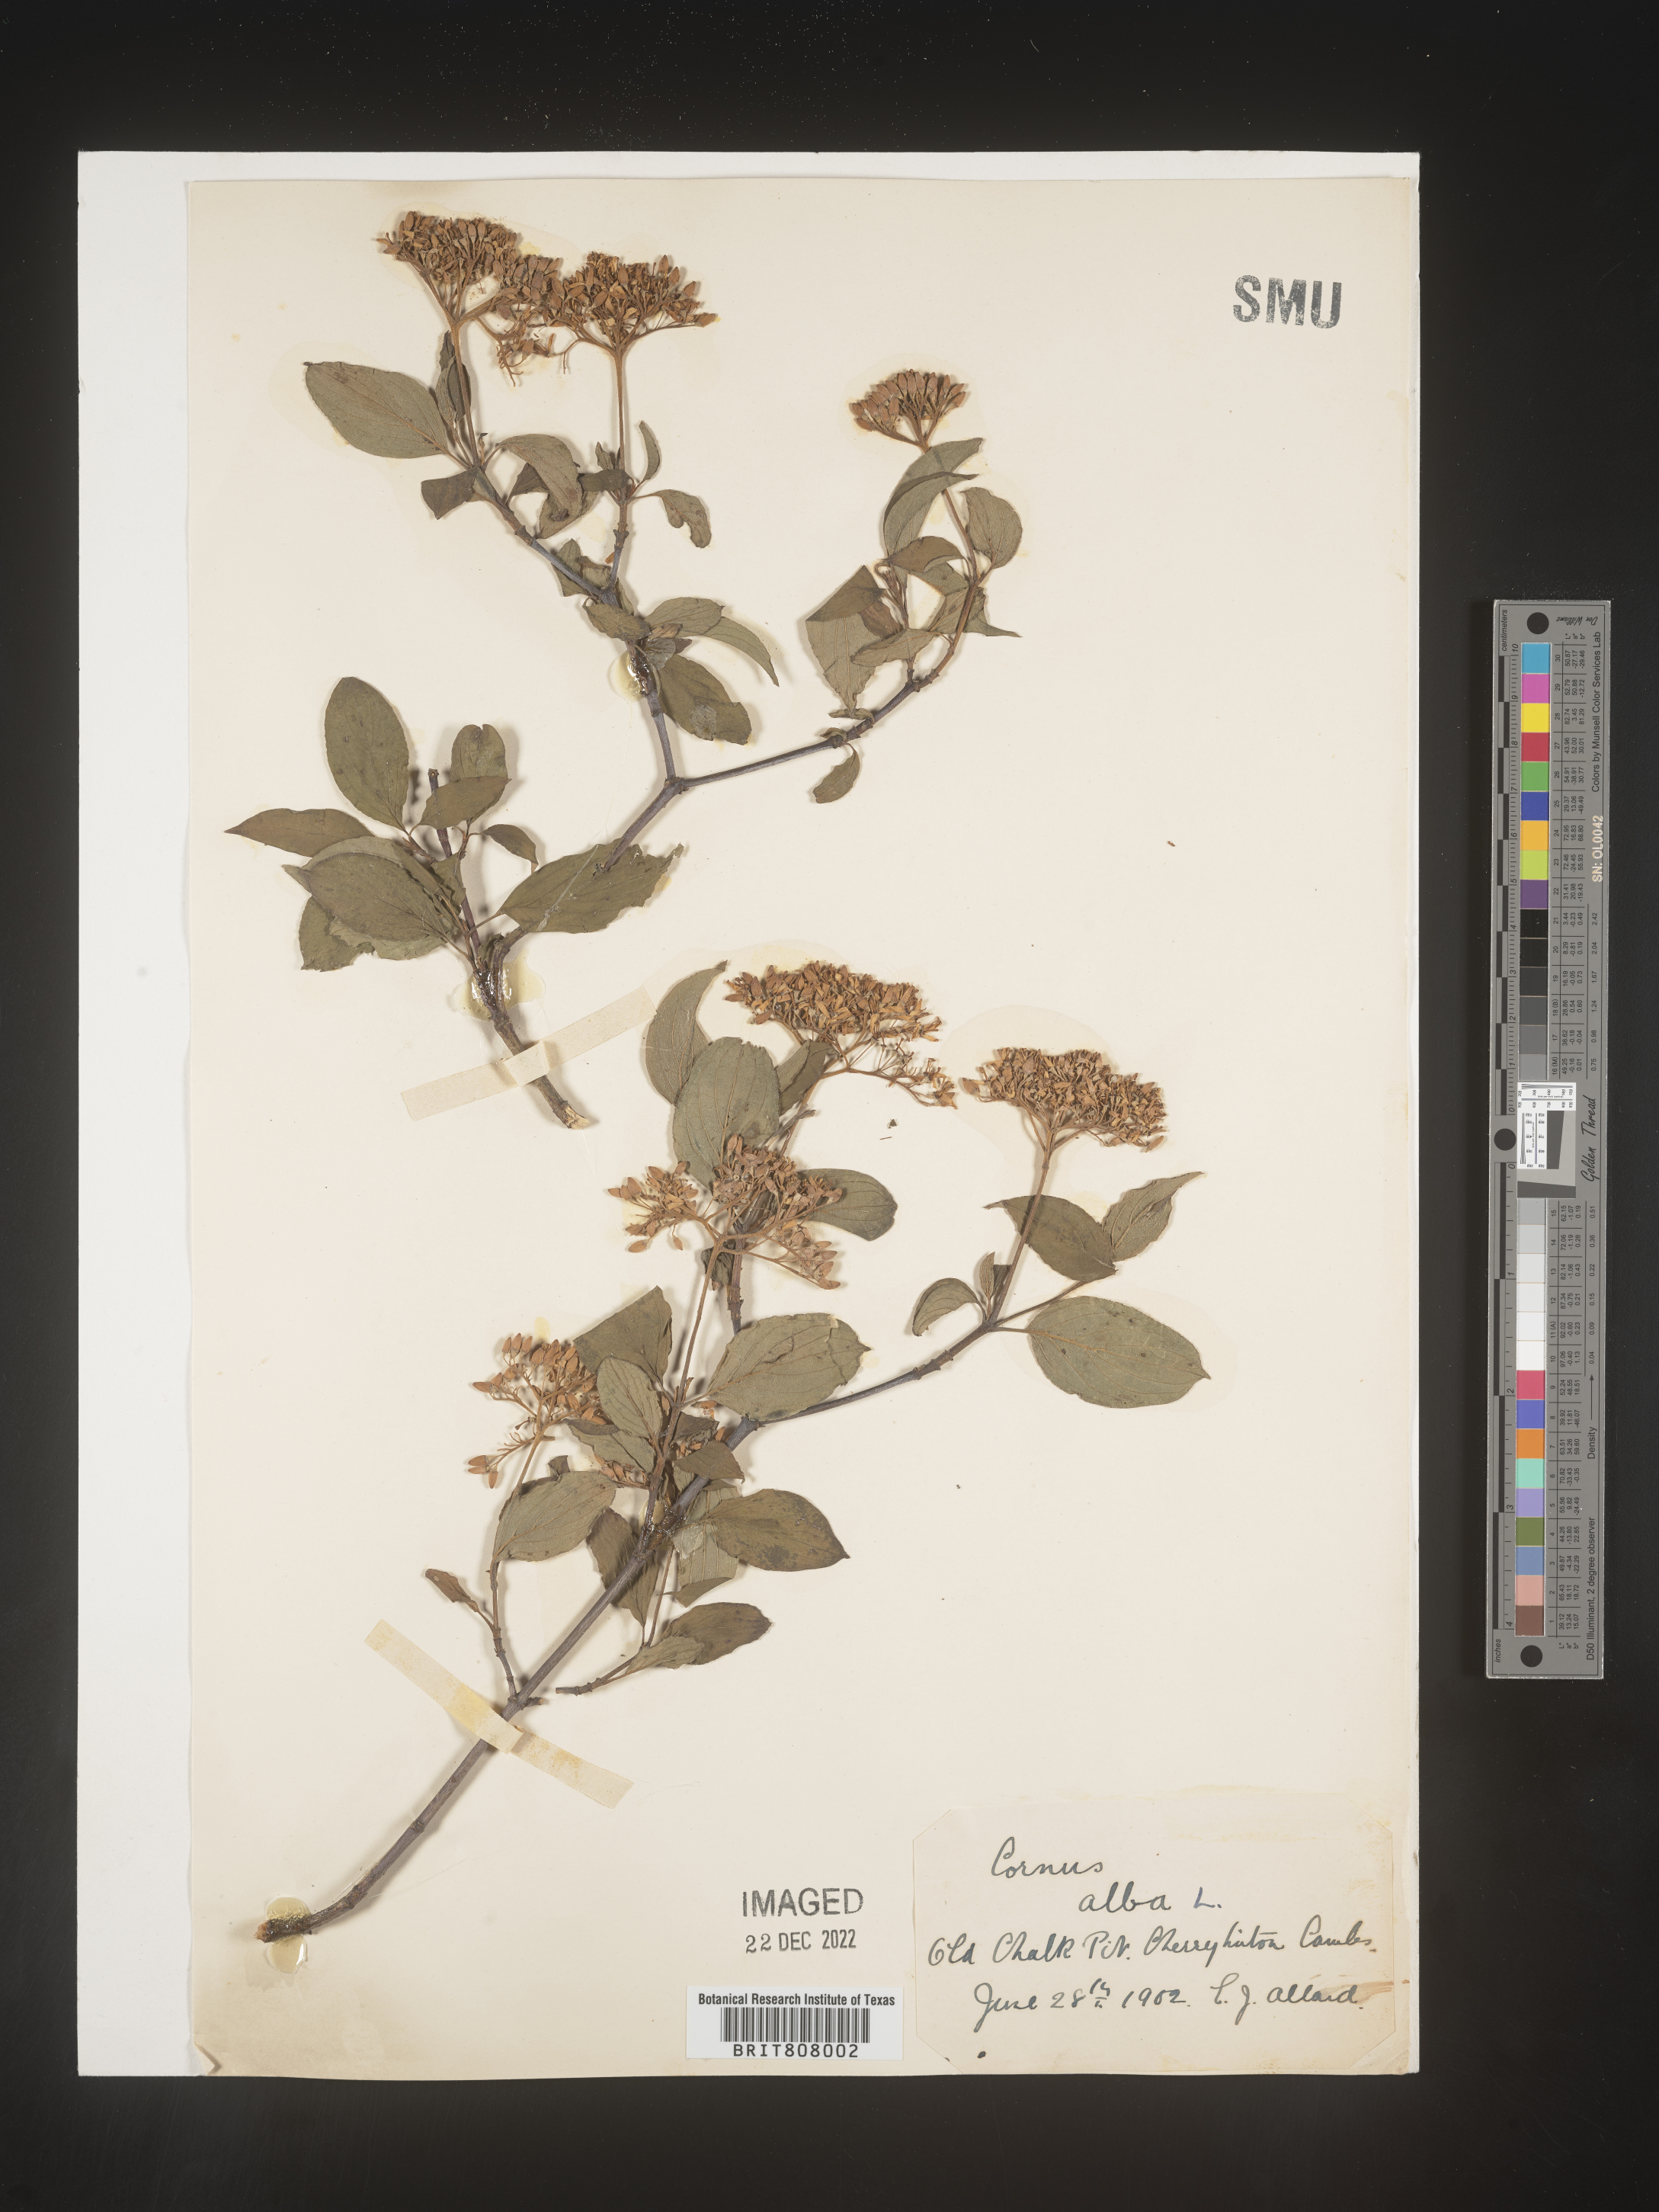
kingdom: Plantae
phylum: Tracheophyta
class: Magnoliopsida
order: Cornales
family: Cornaceae
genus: Cornus
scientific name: Cornus
